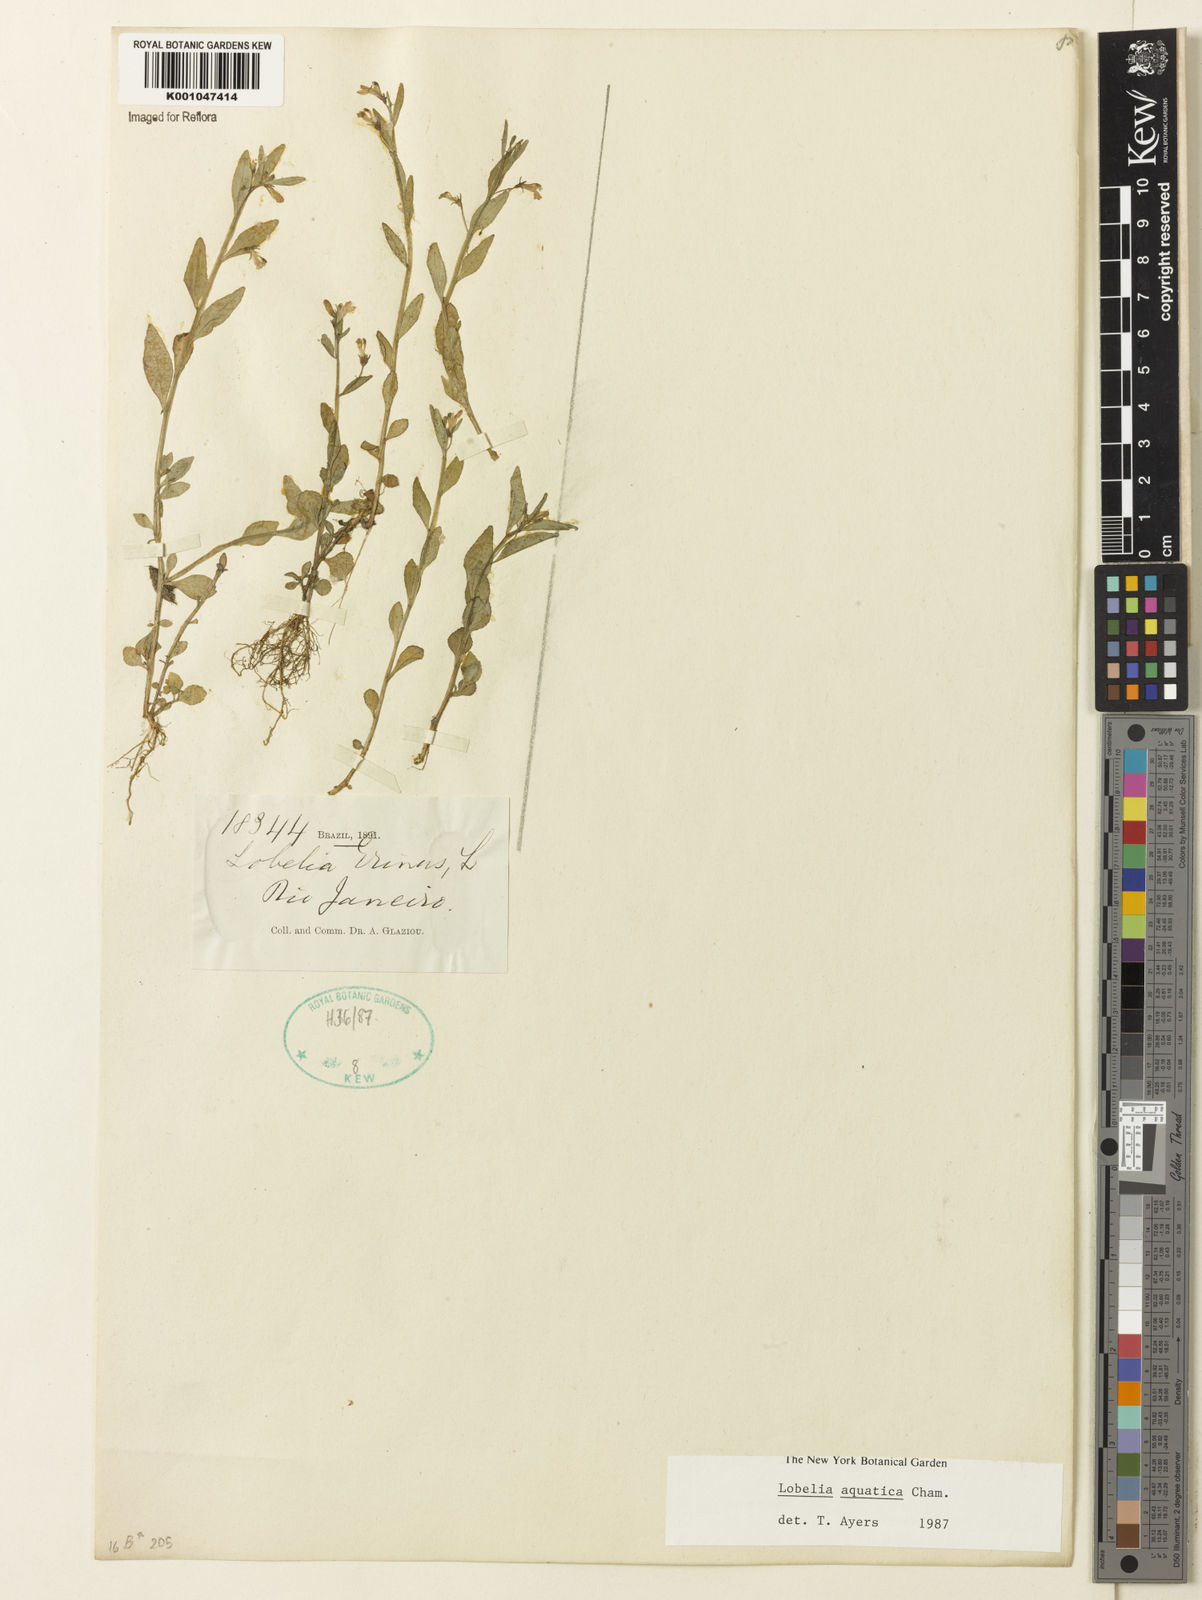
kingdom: Plantae
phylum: Tracheophyta
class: Magnoliopsida
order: Asterales
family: Campanulaceae
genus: Lobelia
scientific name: Lobelia aquatica
